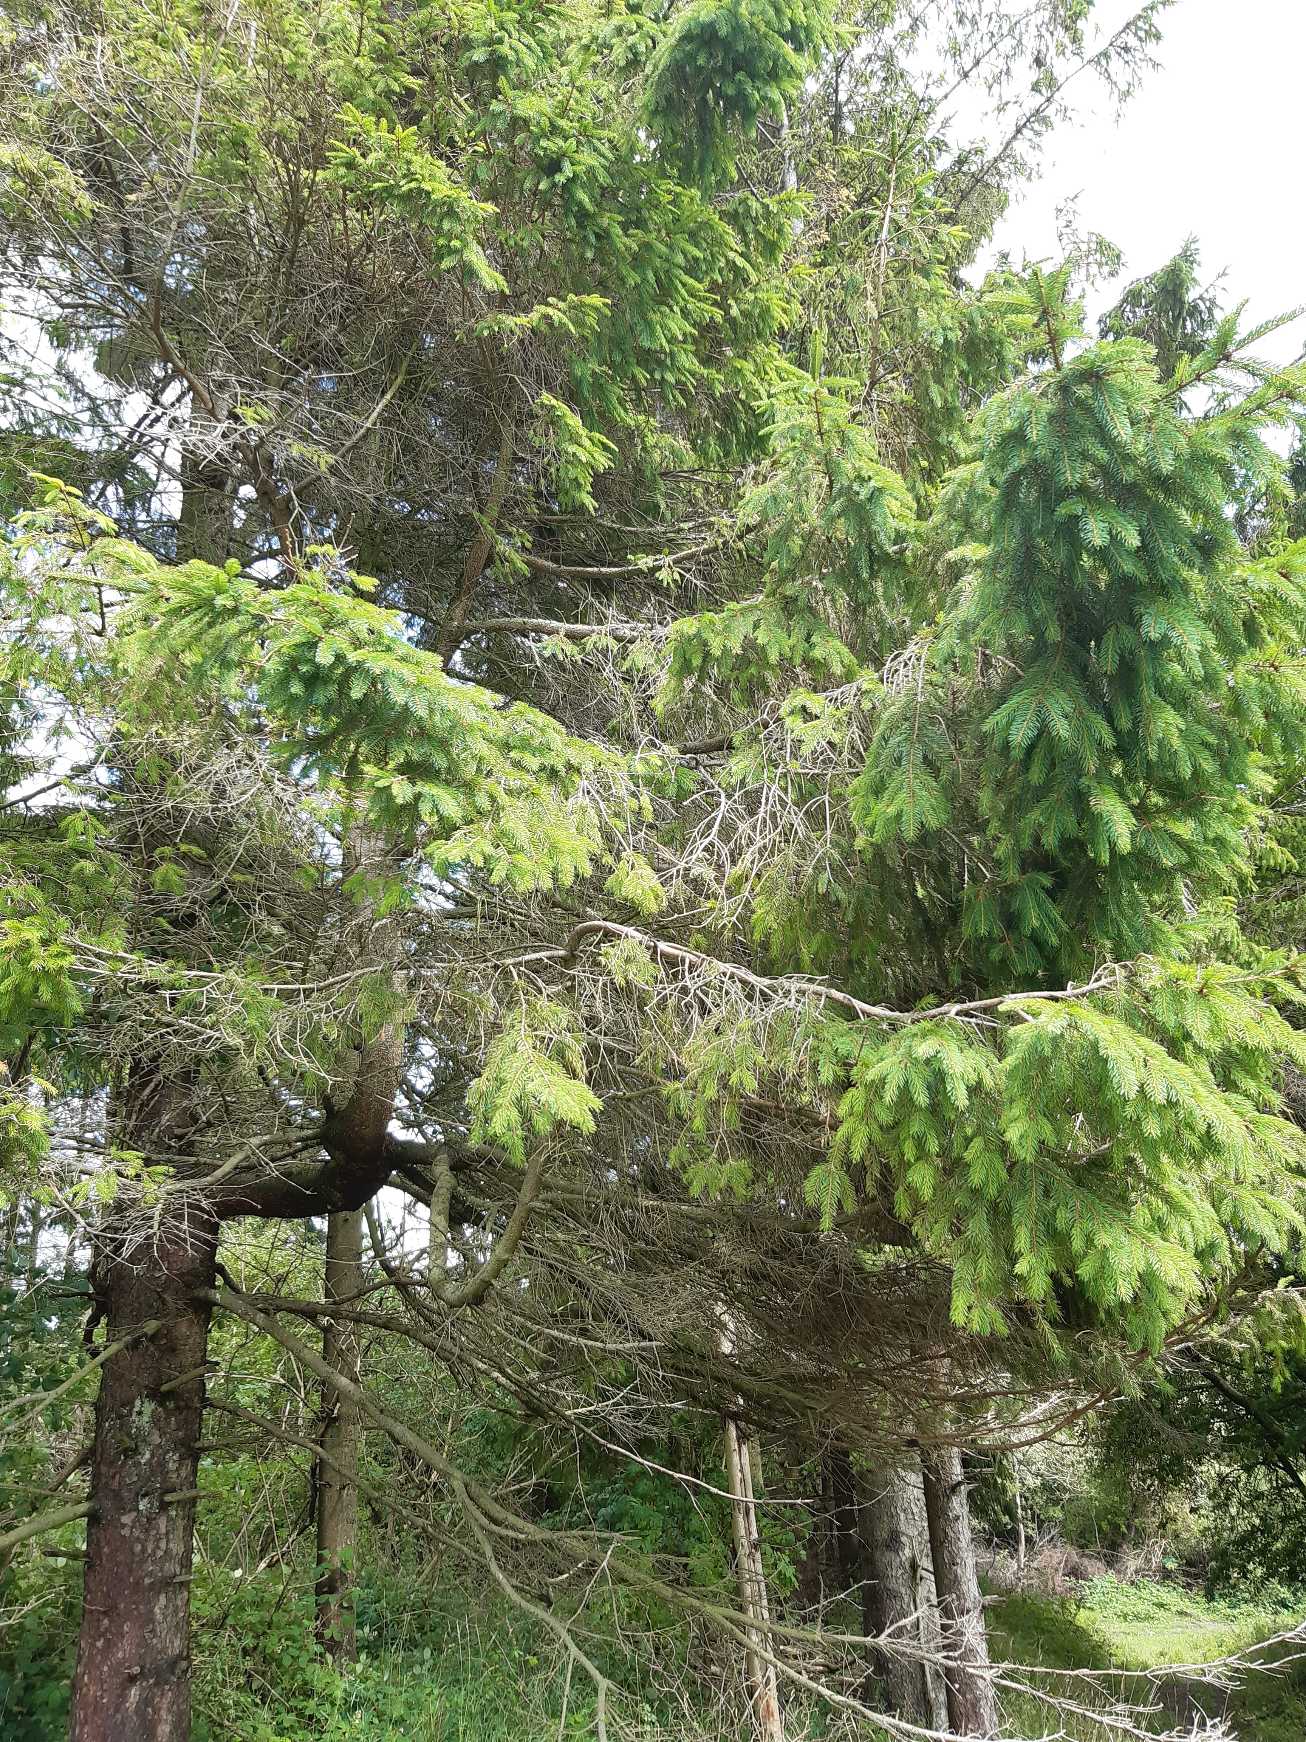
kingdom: Plantae
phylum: Tracheophyta
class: Pinopsida
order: Pinales
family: Pinaceae
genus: Picea
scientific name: Picea abies
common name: Rød-gran
